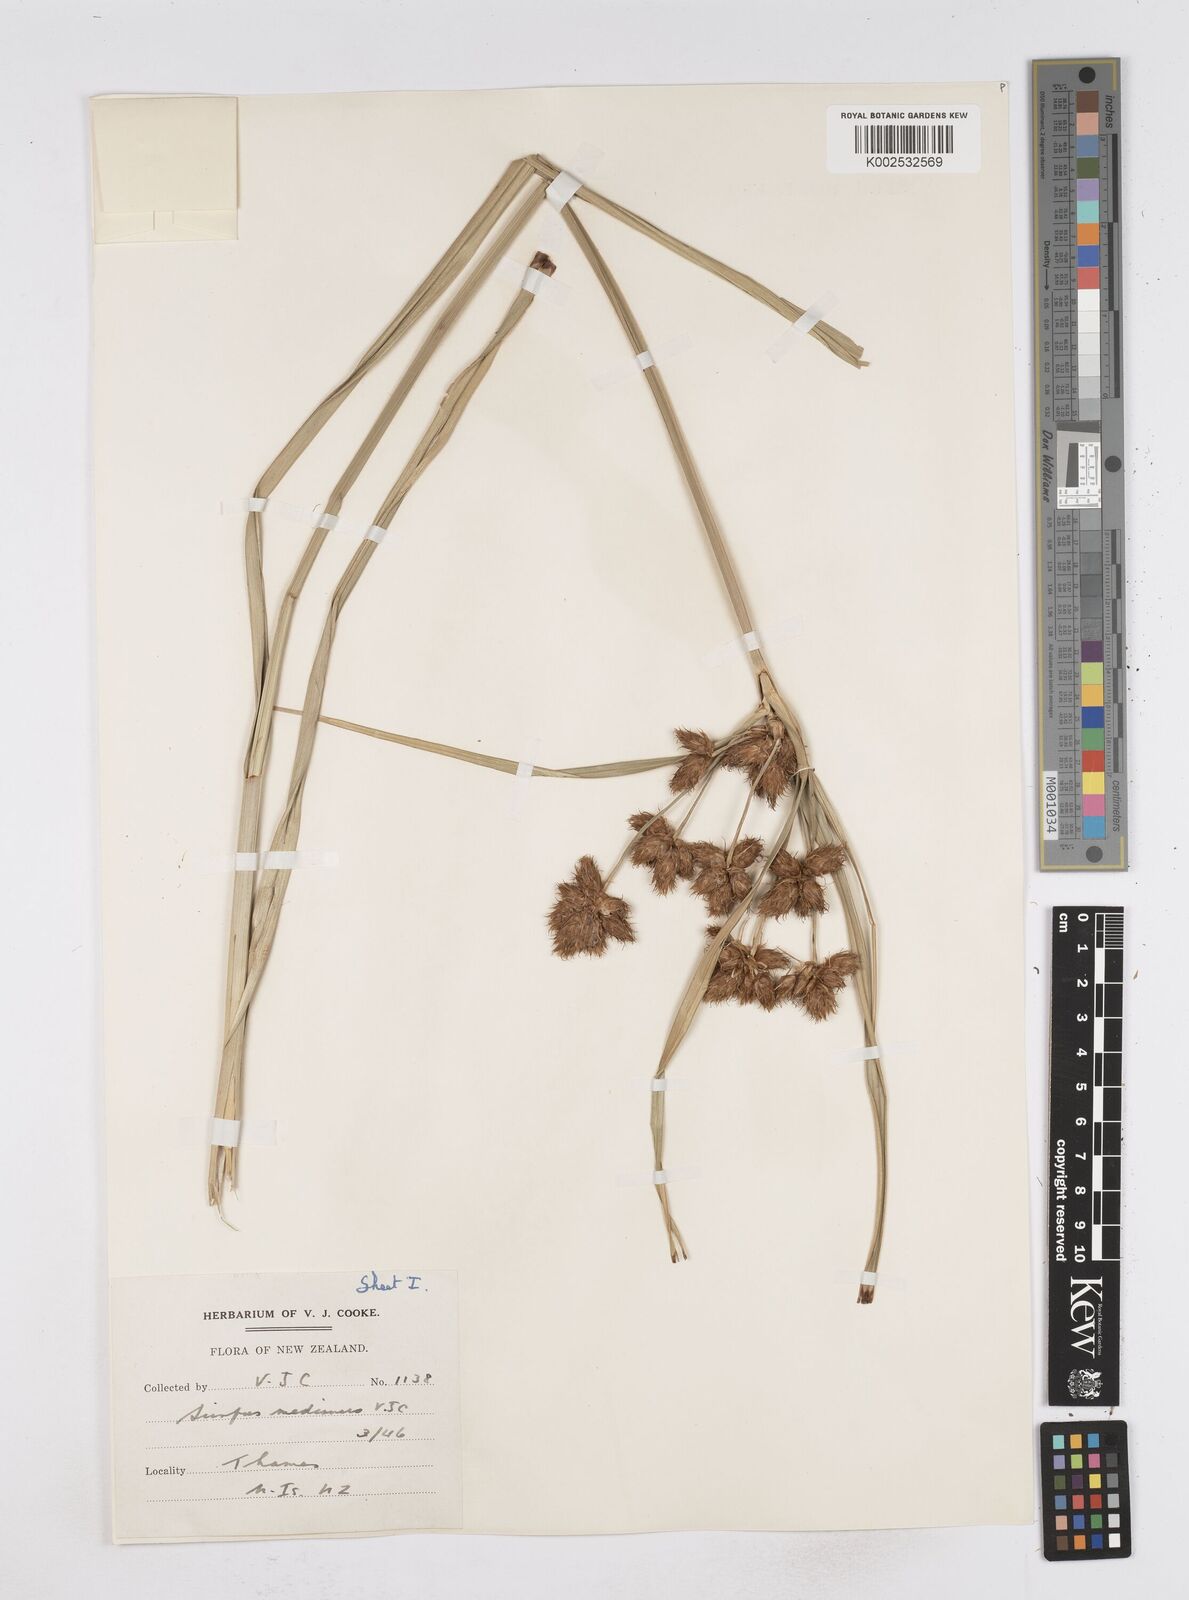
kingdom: Plantae
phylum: Tracheophyta
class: Liliopsida
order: Poales
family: Cyperaceae
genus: Bolboschoenus
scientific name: Bolboschoenus medianus
